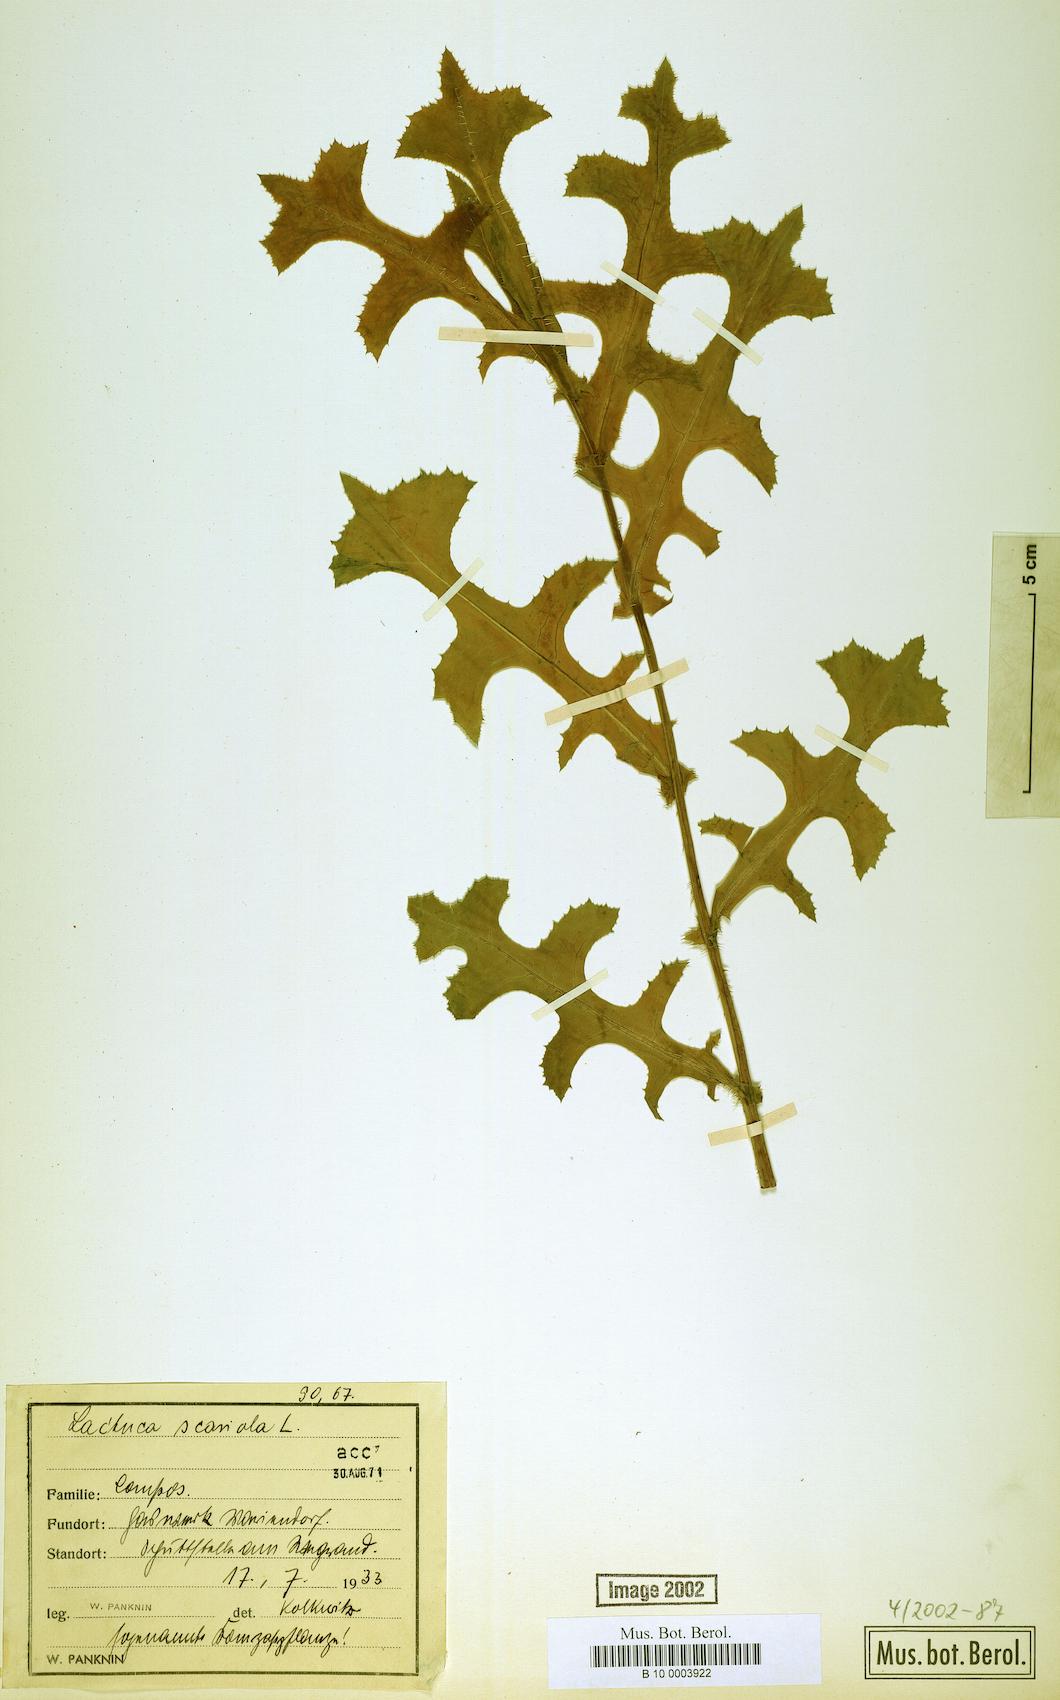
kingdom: Plantae
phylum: Tracheophyta
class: Magnoliopsida
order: Asterales
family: Asteraceae
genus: Lactuca
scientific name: Lactuca serriola
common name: Prickly lettuce
